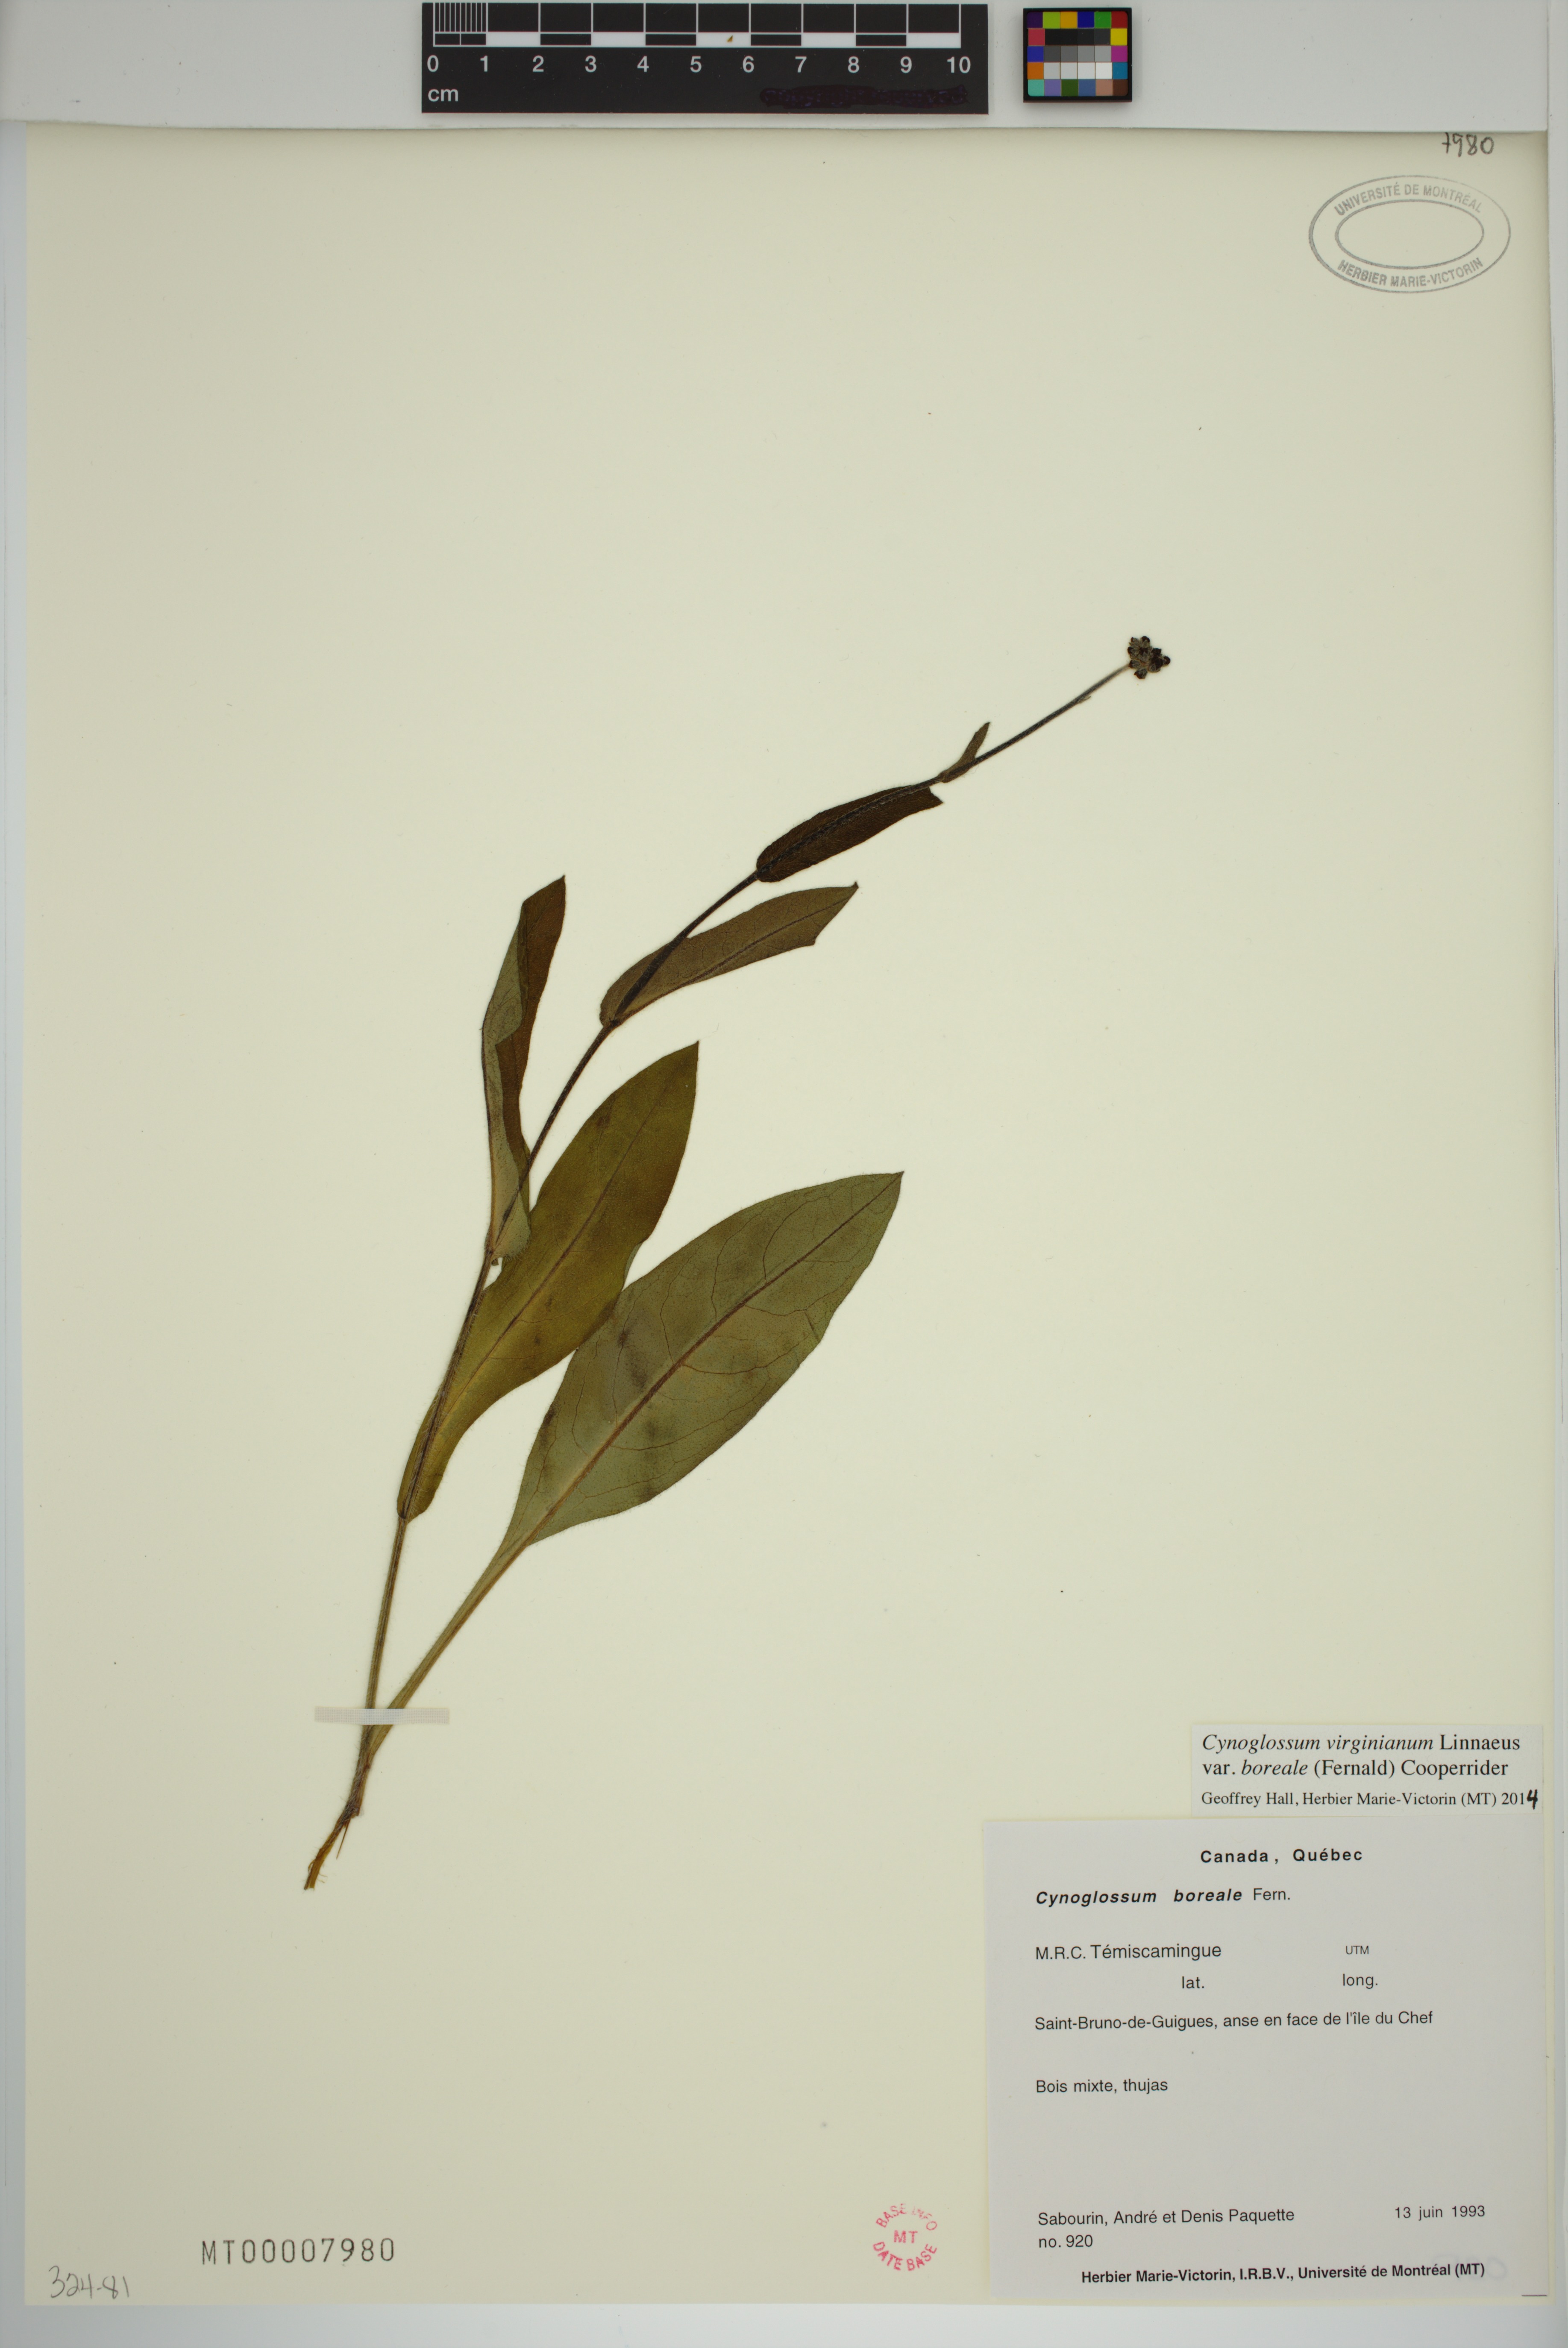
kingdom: Plantae
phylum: Tracheophyta
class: Magnoliopsida
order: Boraginales
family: Boraginaceae
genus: Andersonglossum
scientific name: Andersonglossum boreale
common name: Northern hound's-tongue
